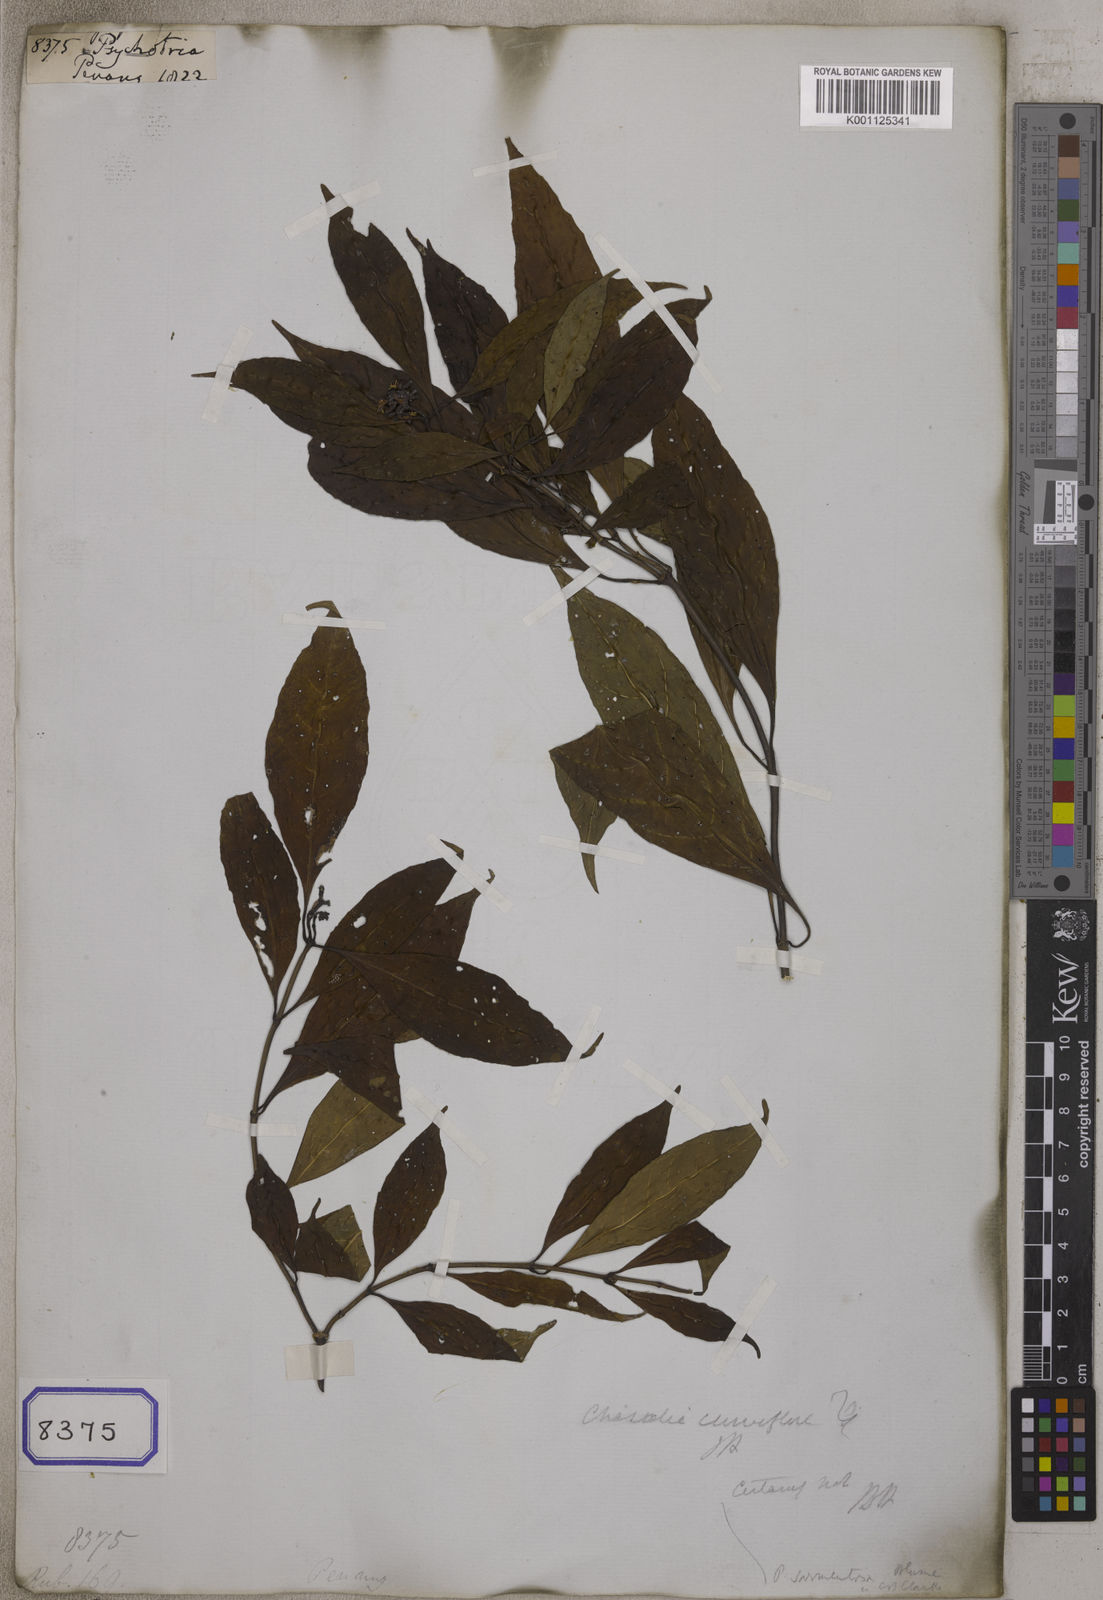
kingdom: Plantae
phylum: Tracheophyta
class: Magnoliopsida
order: Gentianales
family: Rubiaceae
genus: Psychotria
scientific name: Psychotria
